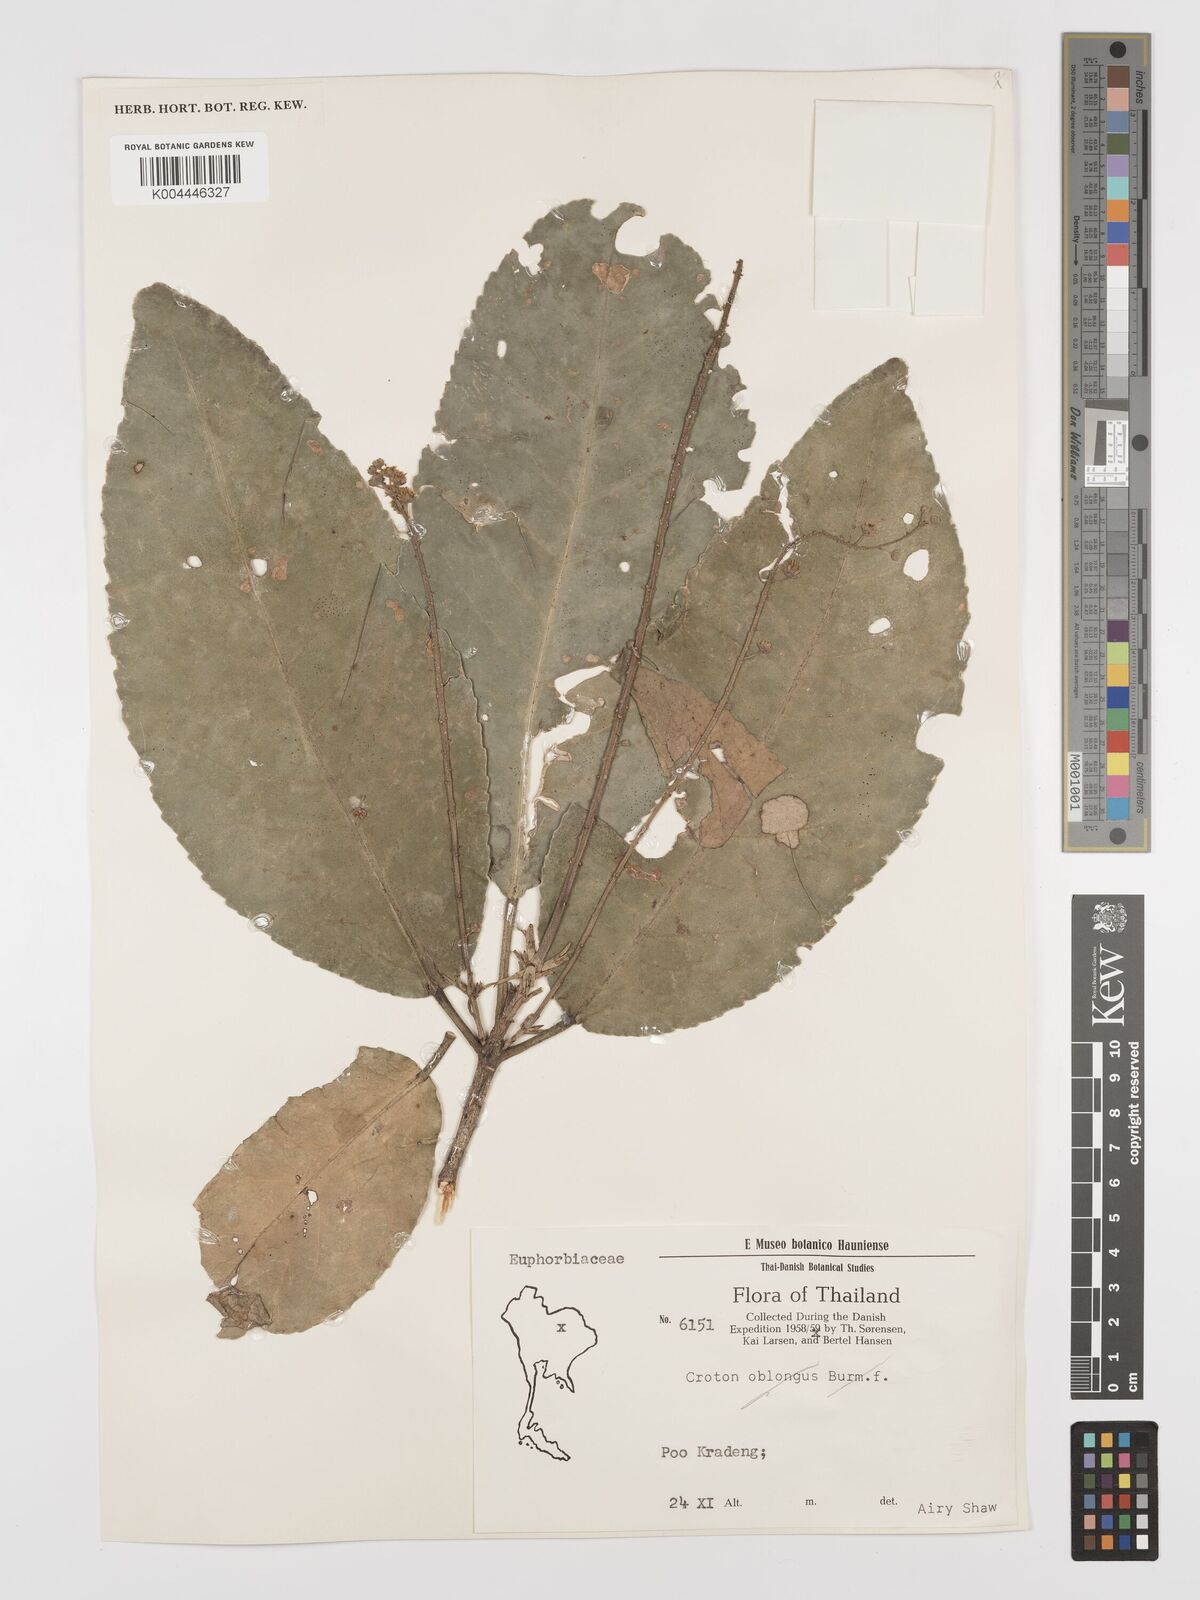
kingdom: Plantae
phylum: Tracheophyta
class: Magnoliopsida
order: Malpighiales
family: Euphorbiaceae
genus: Baliospermum
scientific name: Baliospermum solanifolium
